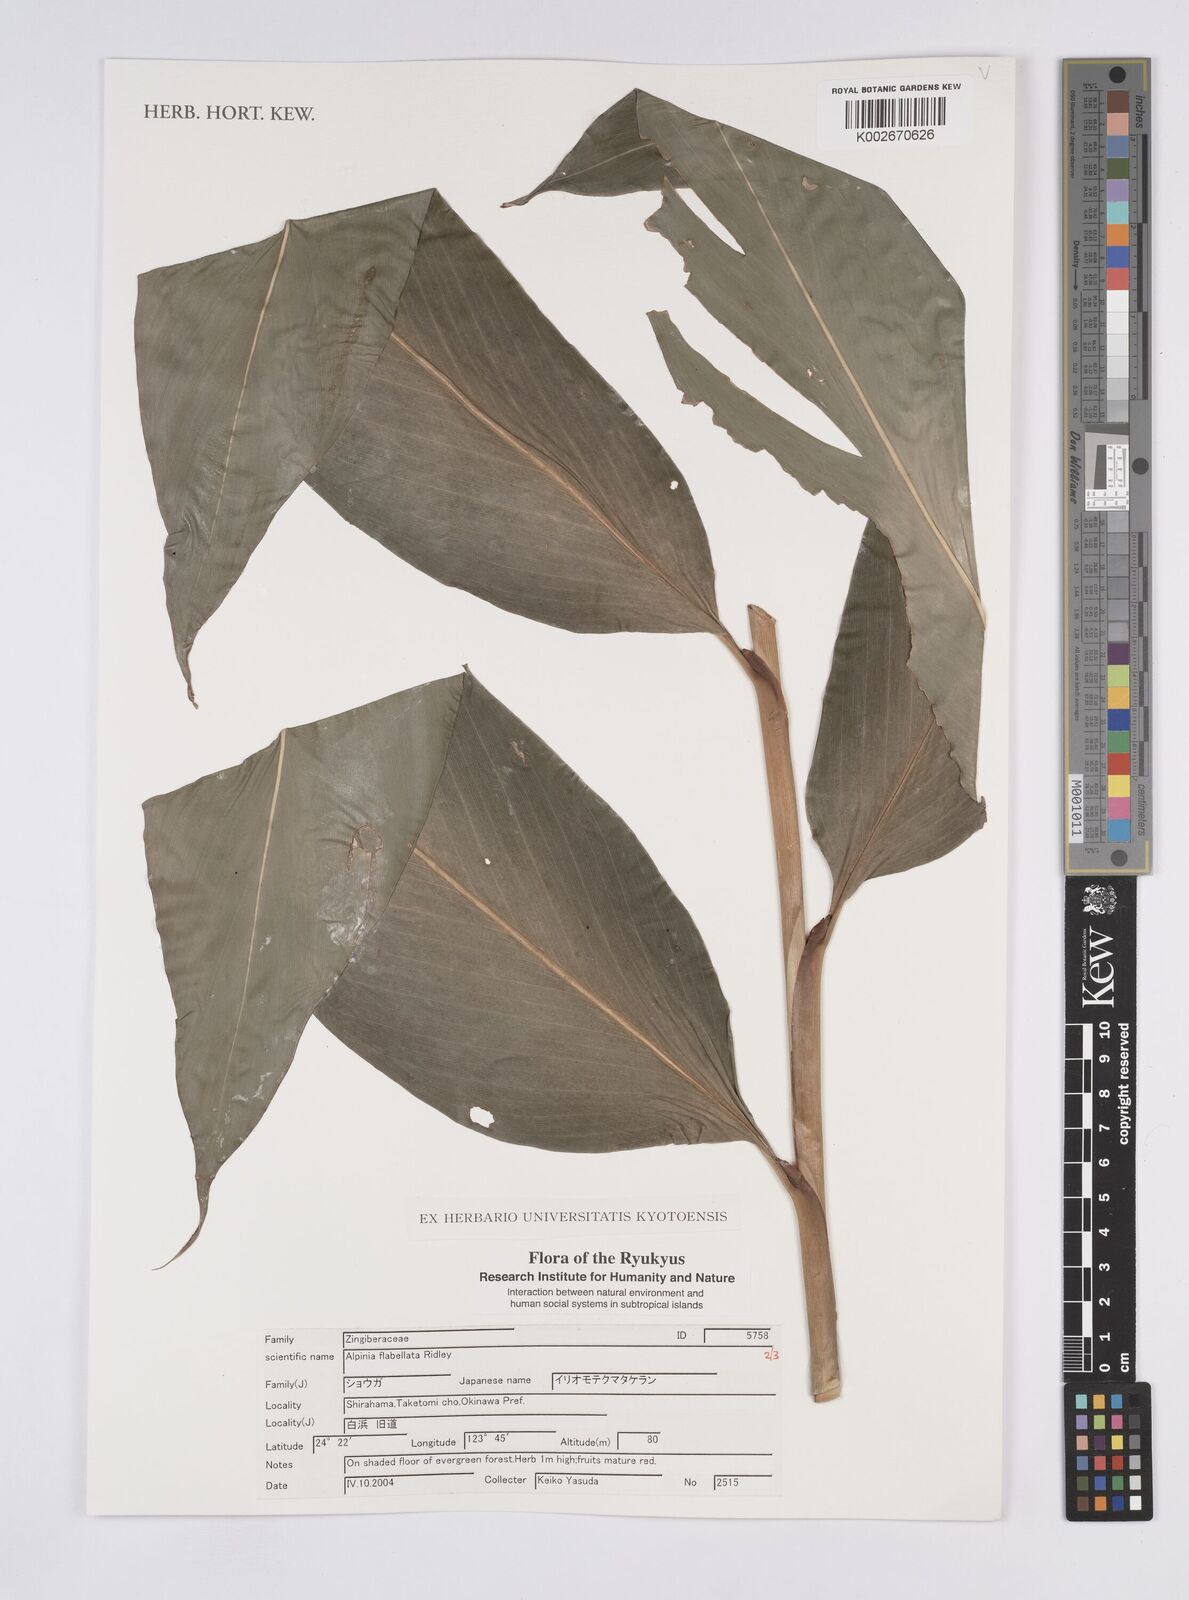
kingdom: Plantae
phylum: Tracheophyta
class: Liliopsida
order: Zingiberales
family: Zingiberaceae
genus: Alpinia
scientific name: Alpinia flabellata
